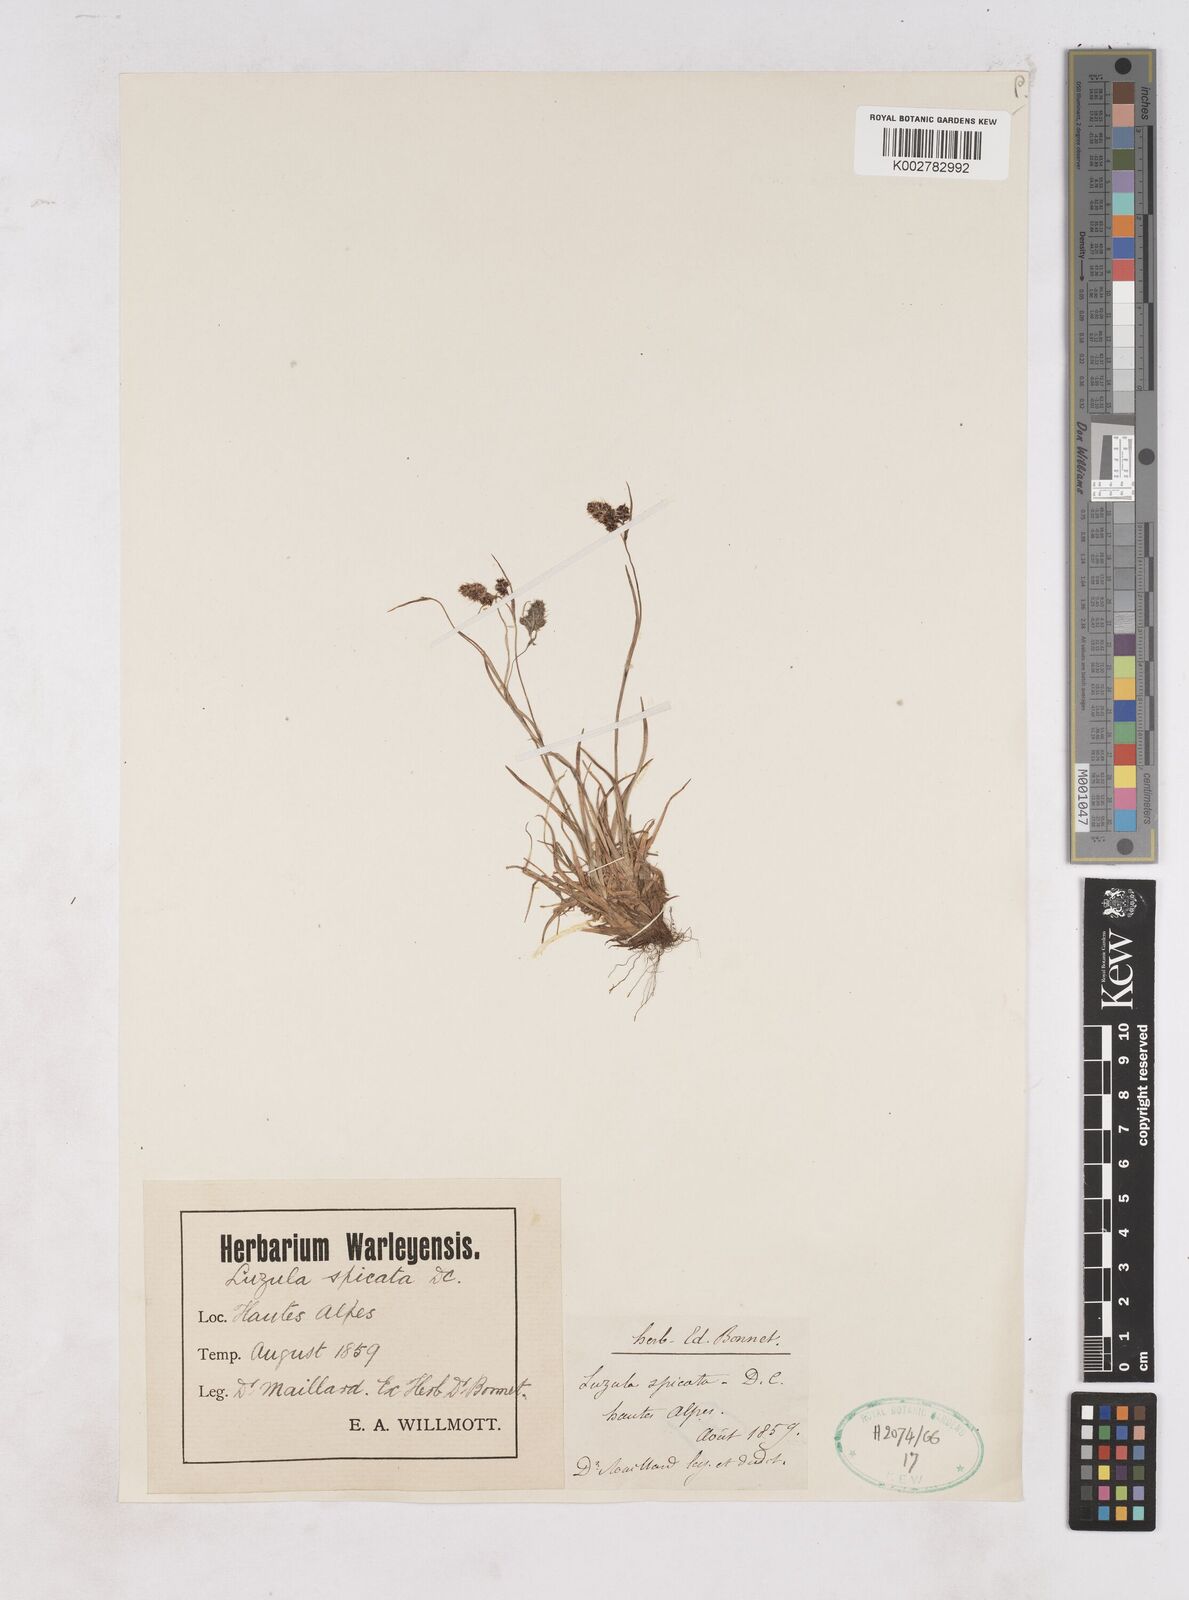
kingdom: Plantae
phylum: Tracheophyta
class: Liliopsida
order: Poales
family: Juncaceae
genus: Luzula
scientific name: Luzula campestris
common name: Field wood-rush
